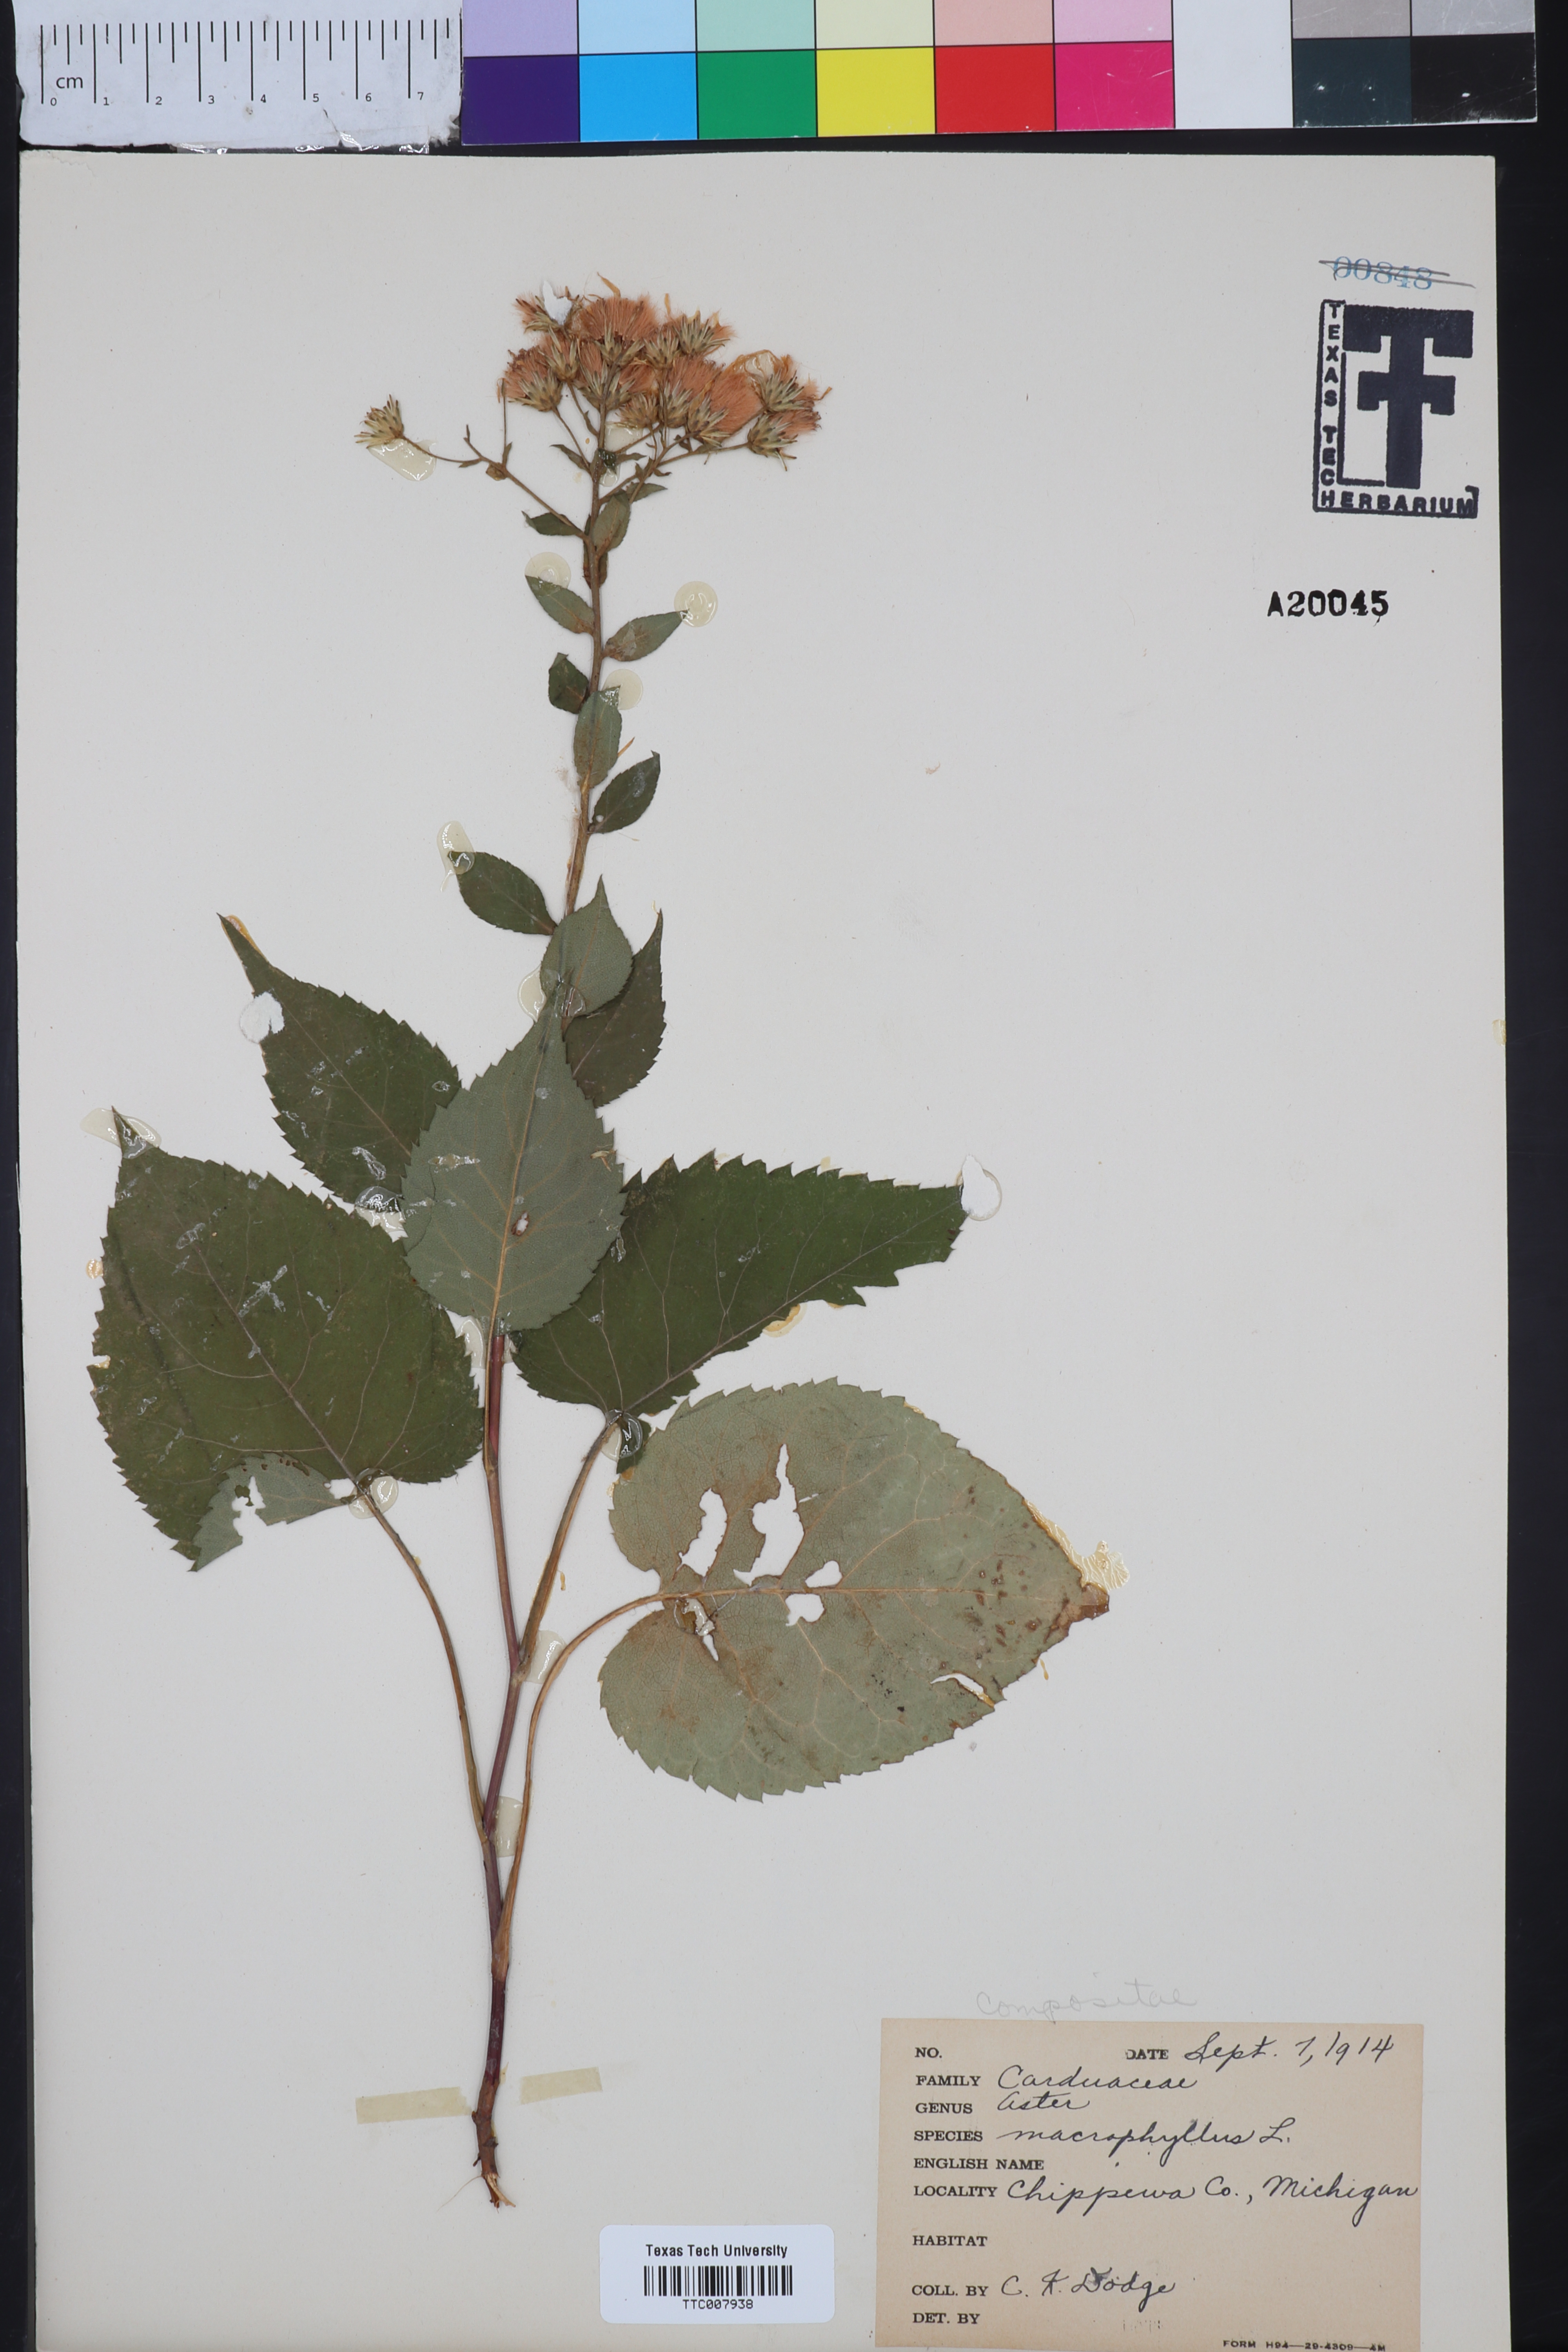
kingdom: Plantae
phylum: Tracheophyta
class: Magnoliopsida
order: Asterales
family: Asteraceae
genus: Eurybia
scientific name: Eurybia macrophylla
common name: Big-leaved aster
